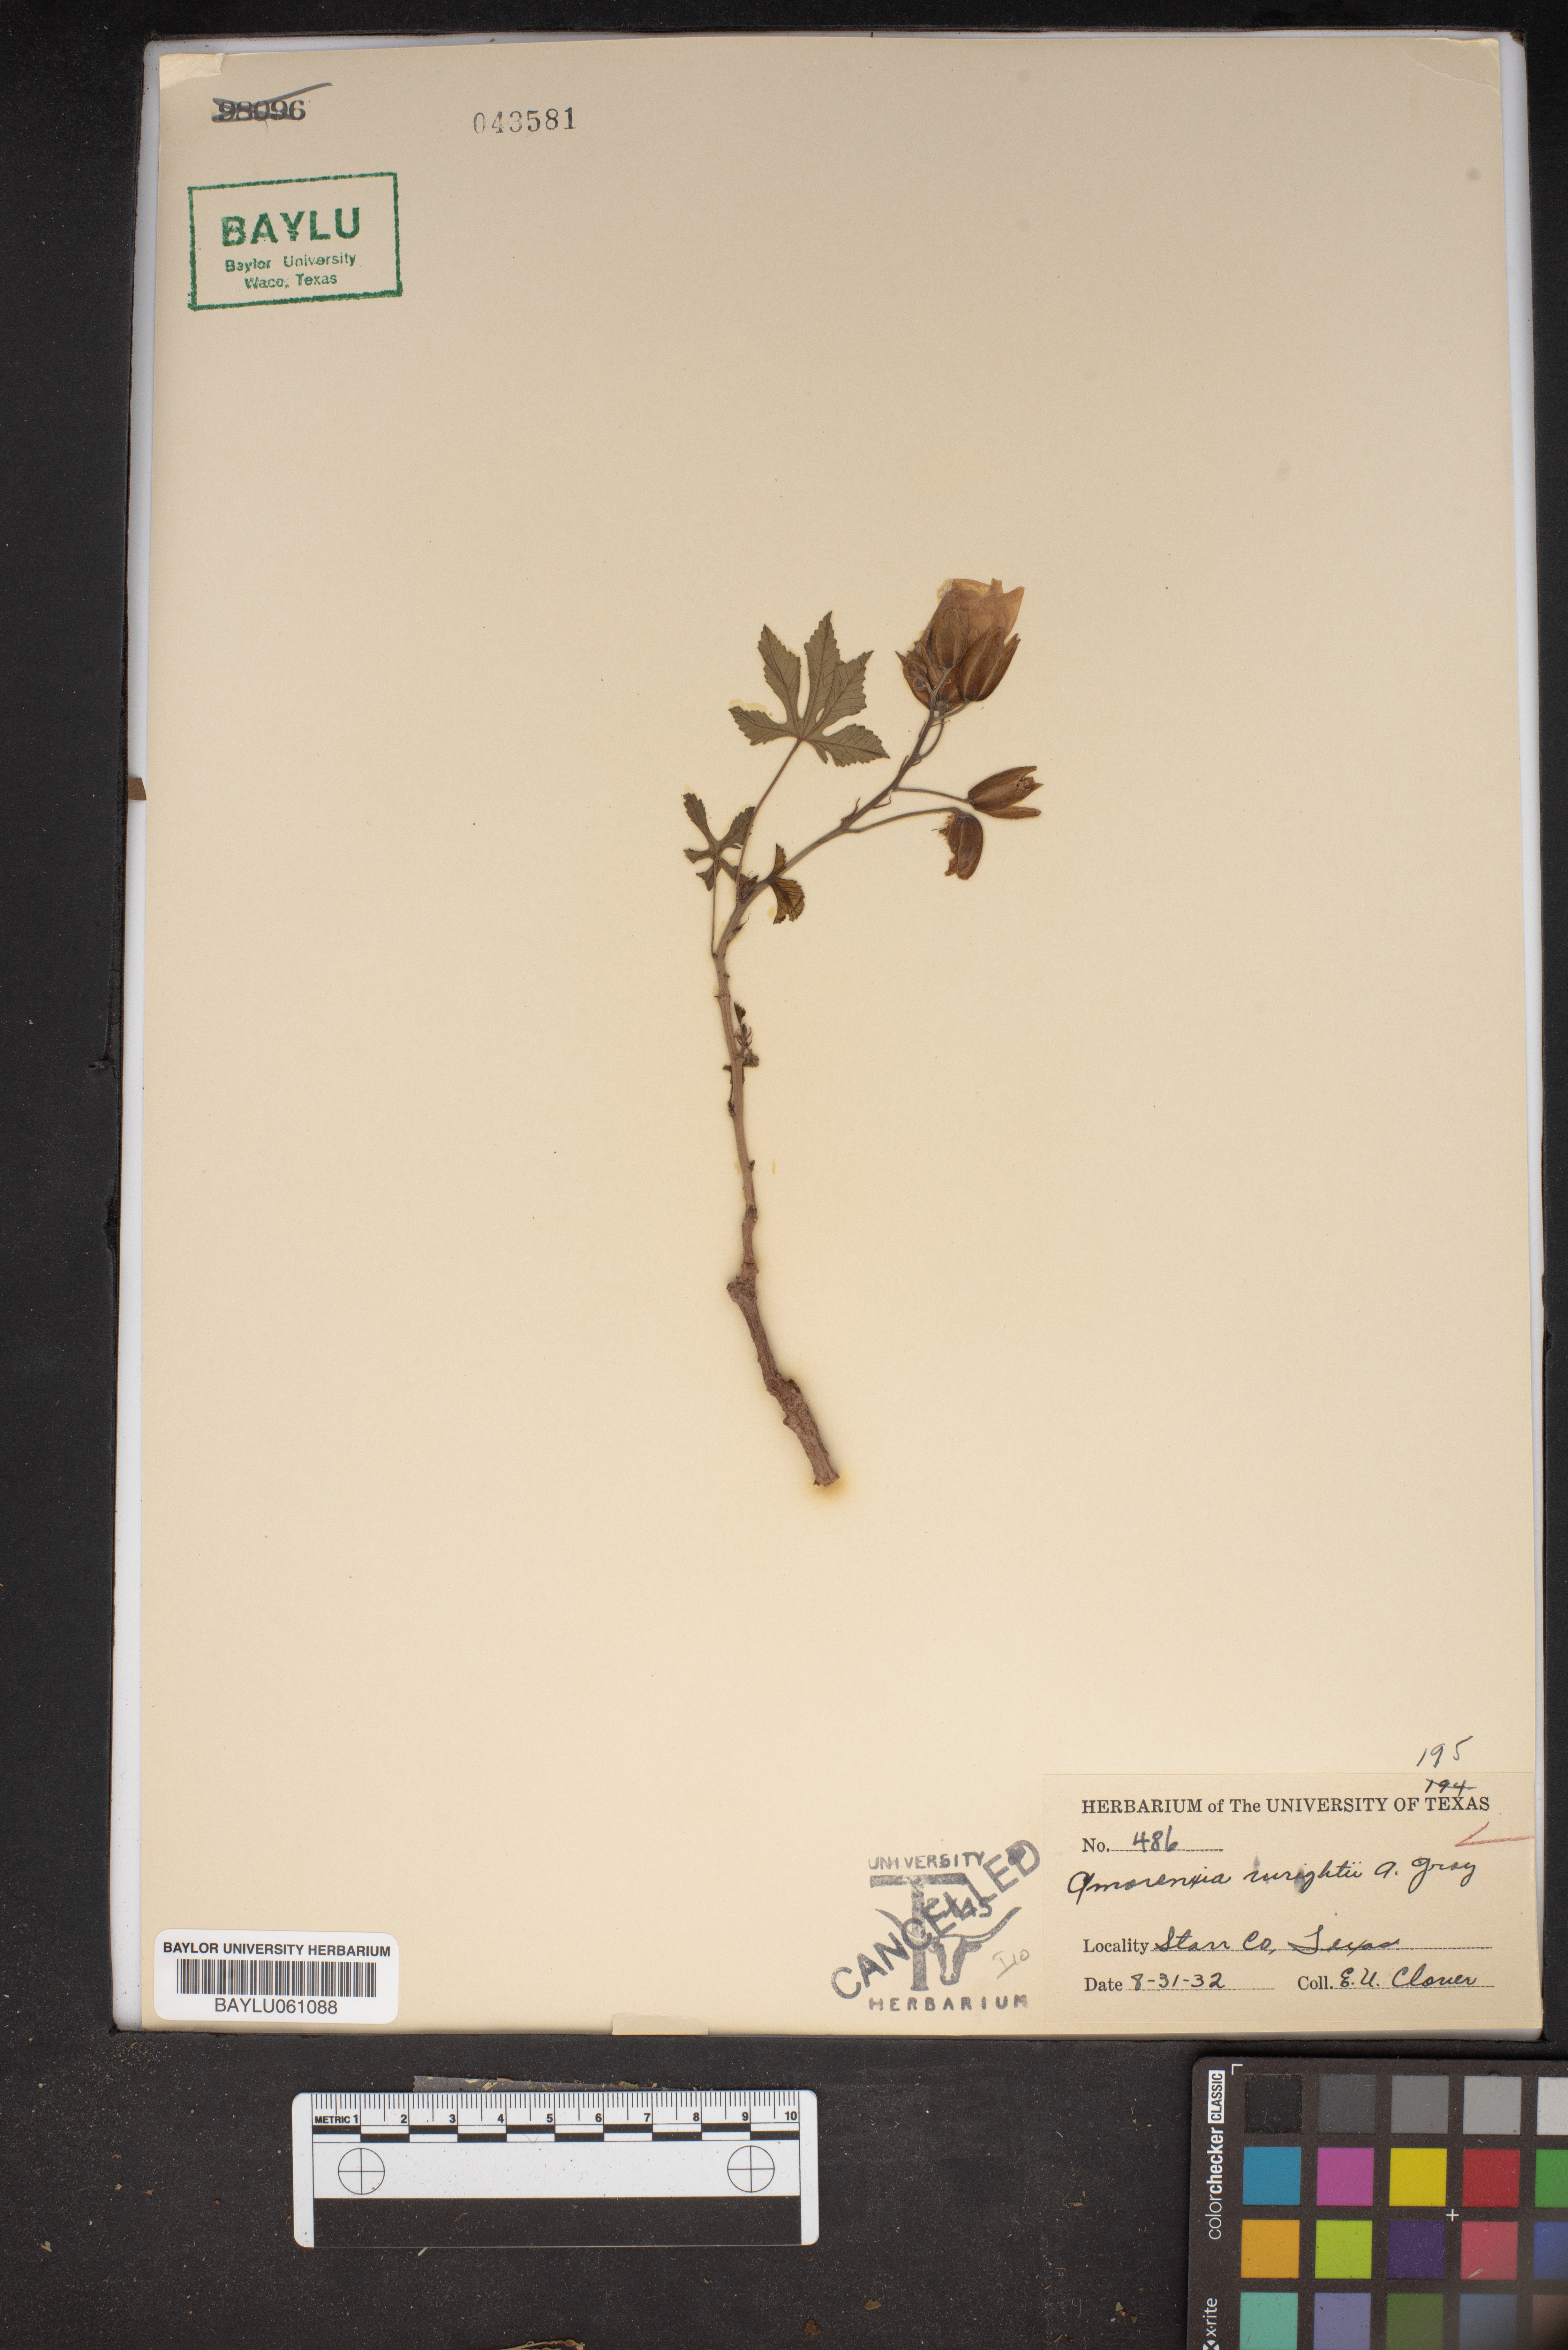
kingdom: Plantae
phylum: Tracheophyta
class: Magnoliopsida
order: Malvales
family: Cochlospermaceae
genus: Cochlospermum
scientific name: Cochlospermum wrightii
